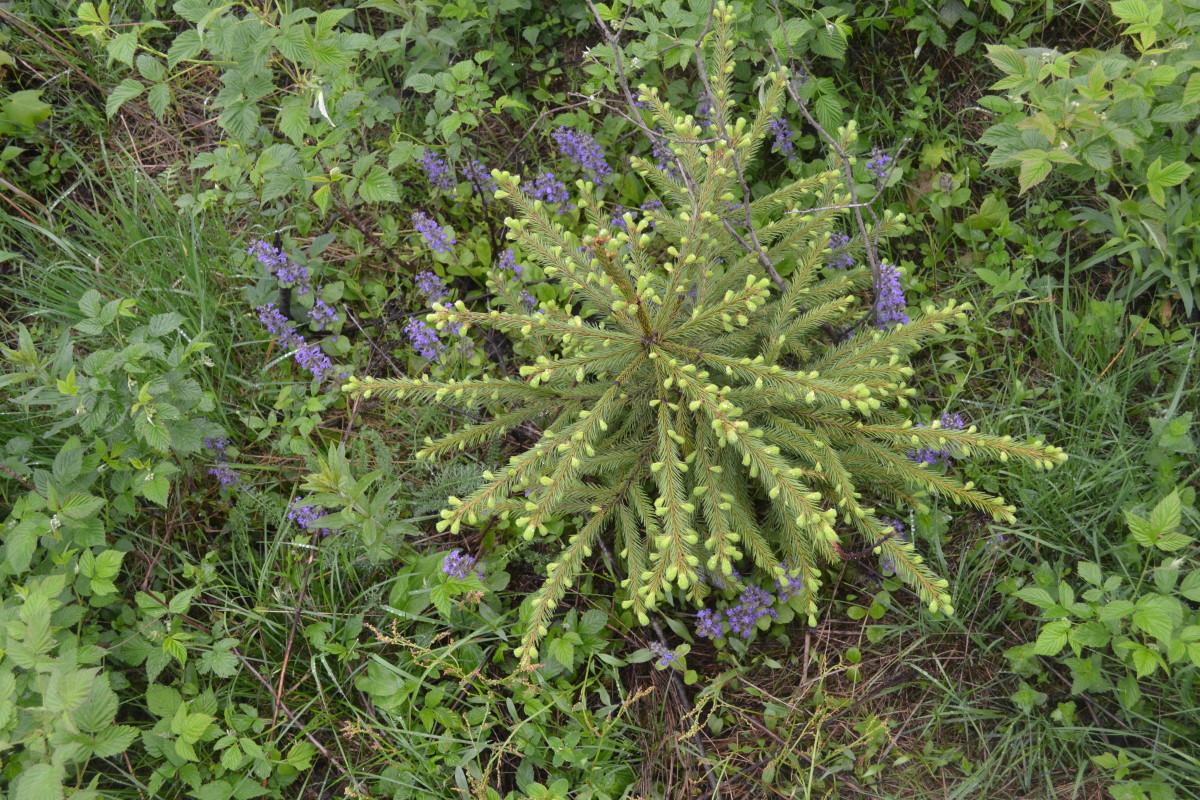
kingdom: Plantae
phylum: Tracheophyta
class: Pinopsida
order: Pinales
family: Pinaceae
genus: Picea
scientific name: Picea abies
